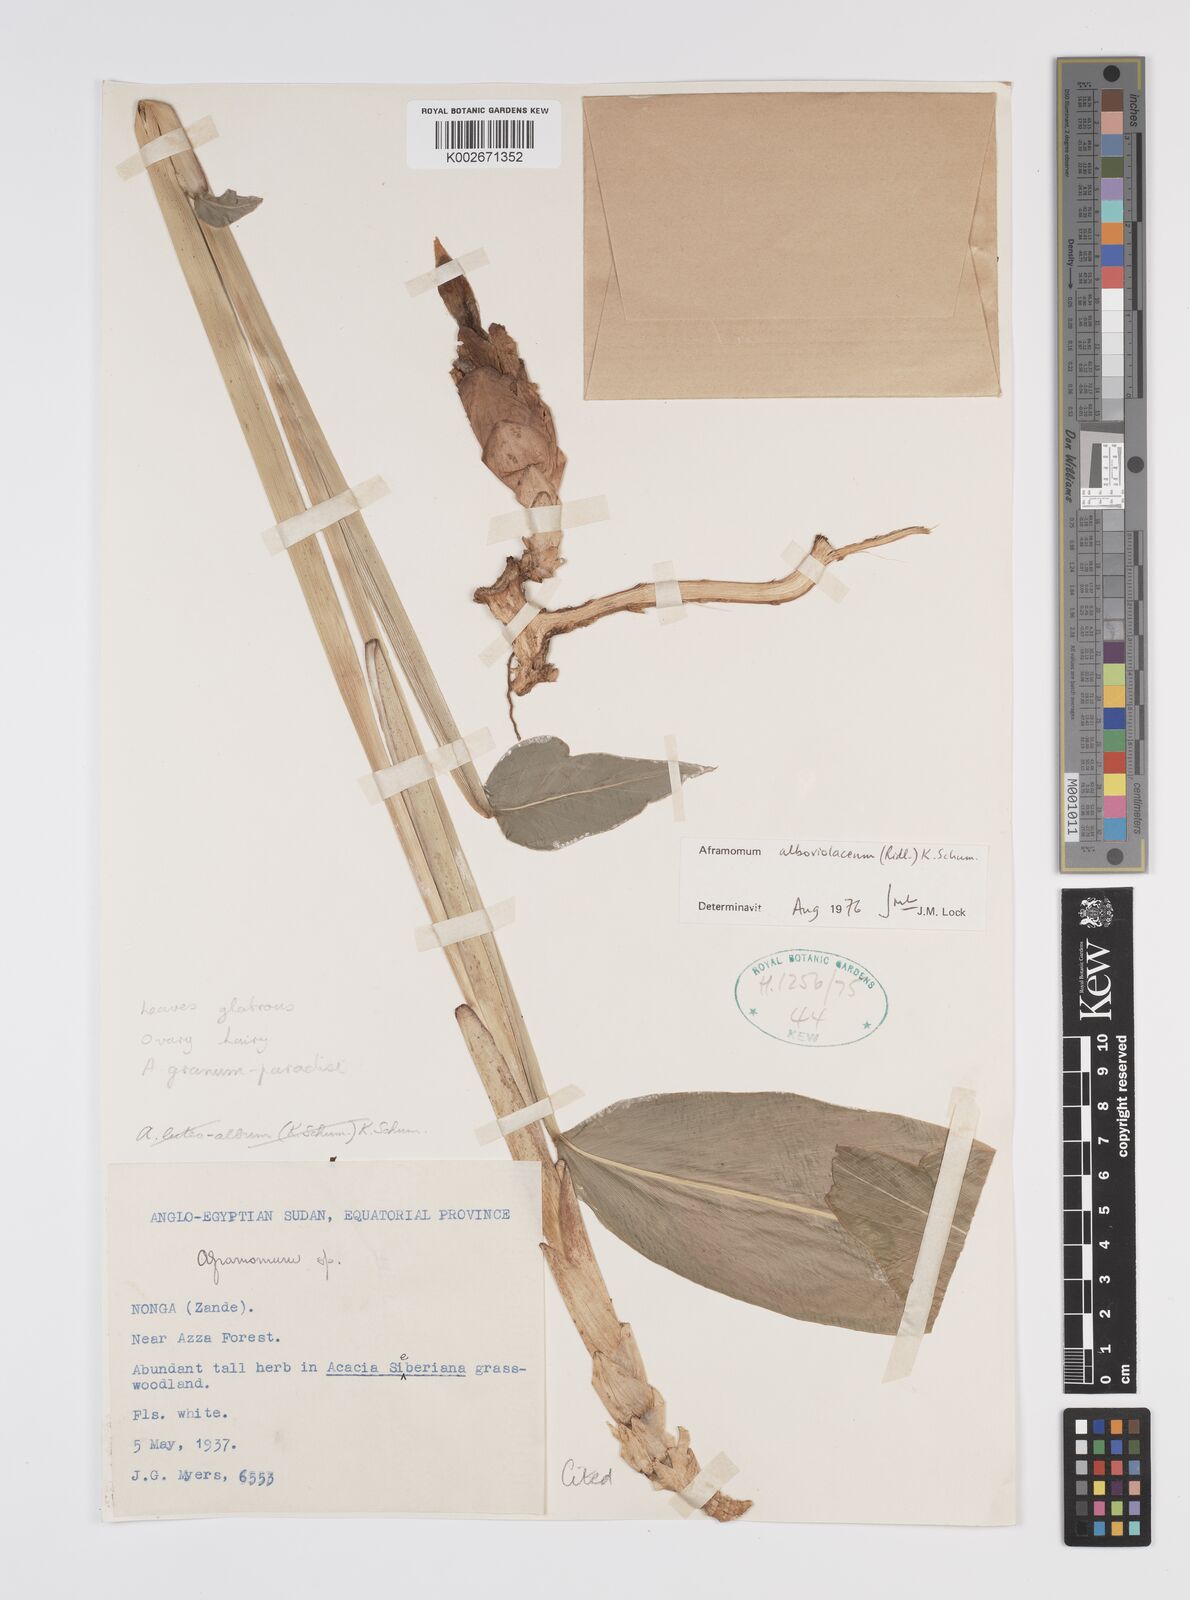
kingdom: Plantae
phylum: Tracheophyta
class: Liliopsida
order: Zingiberales
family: Zingiberaceae
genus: Aframomum
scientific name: Aframomum alboviolaceum
